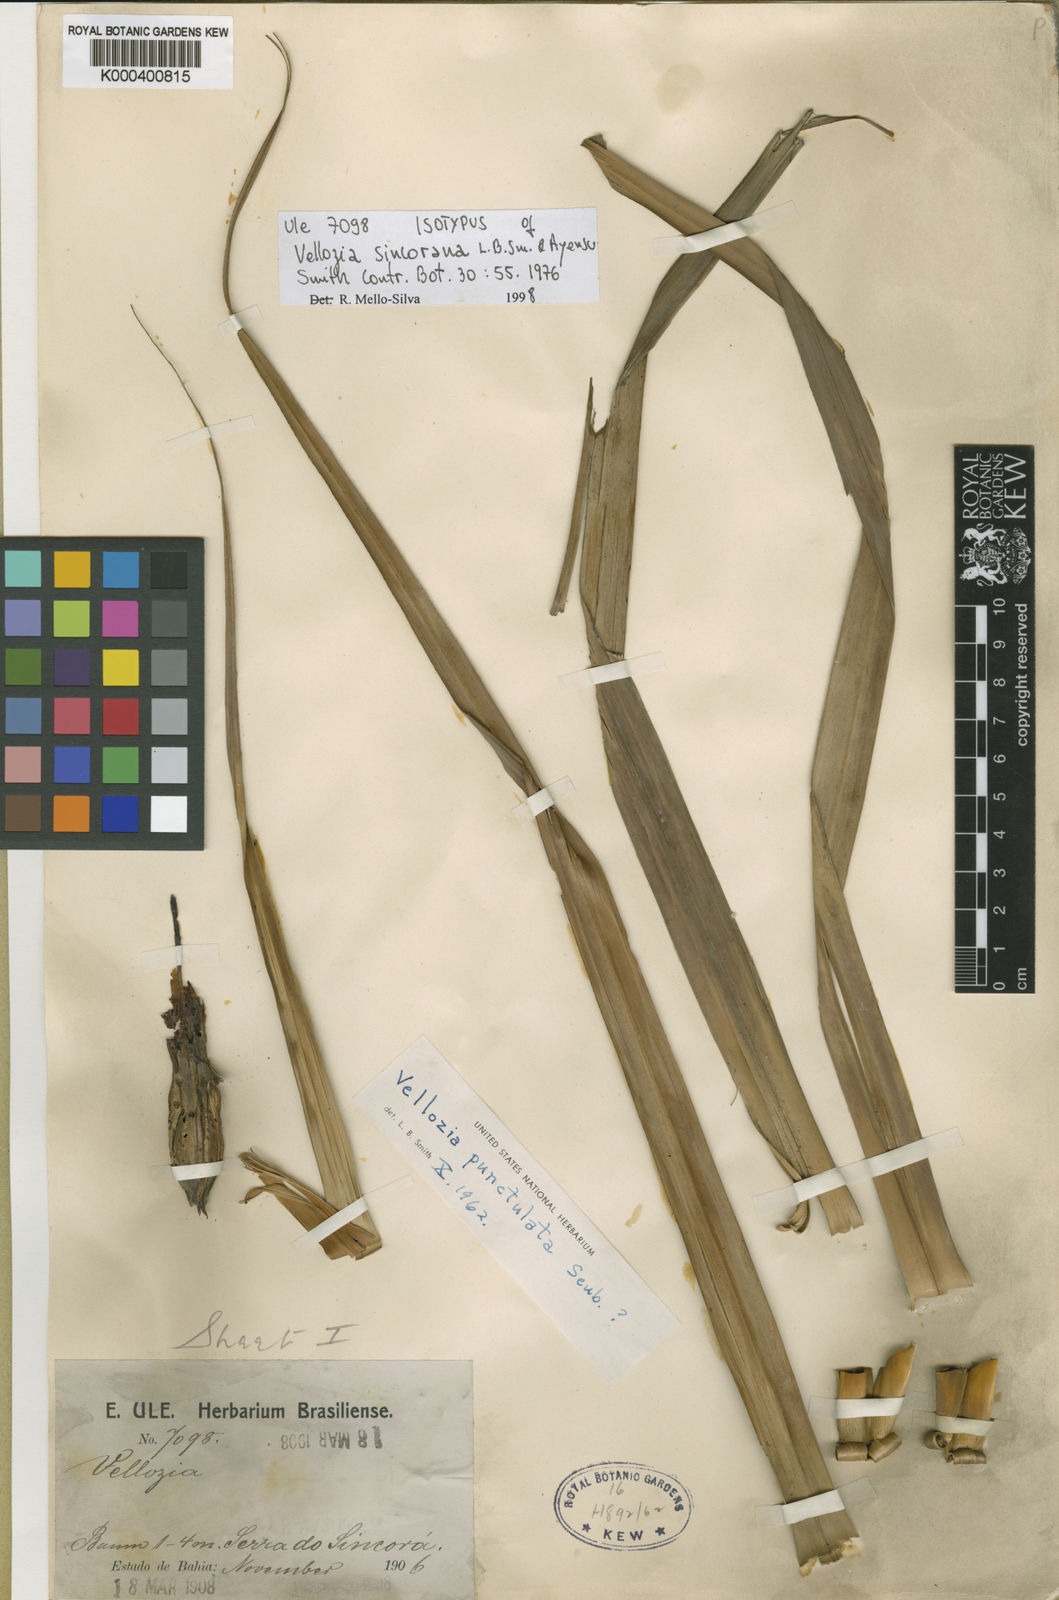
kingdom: Plantae
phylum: Tracheophyta
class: Liliopsida
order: Pandanales
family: Velloziaceae
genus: Vellozia
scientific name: Vellozia sincorana
